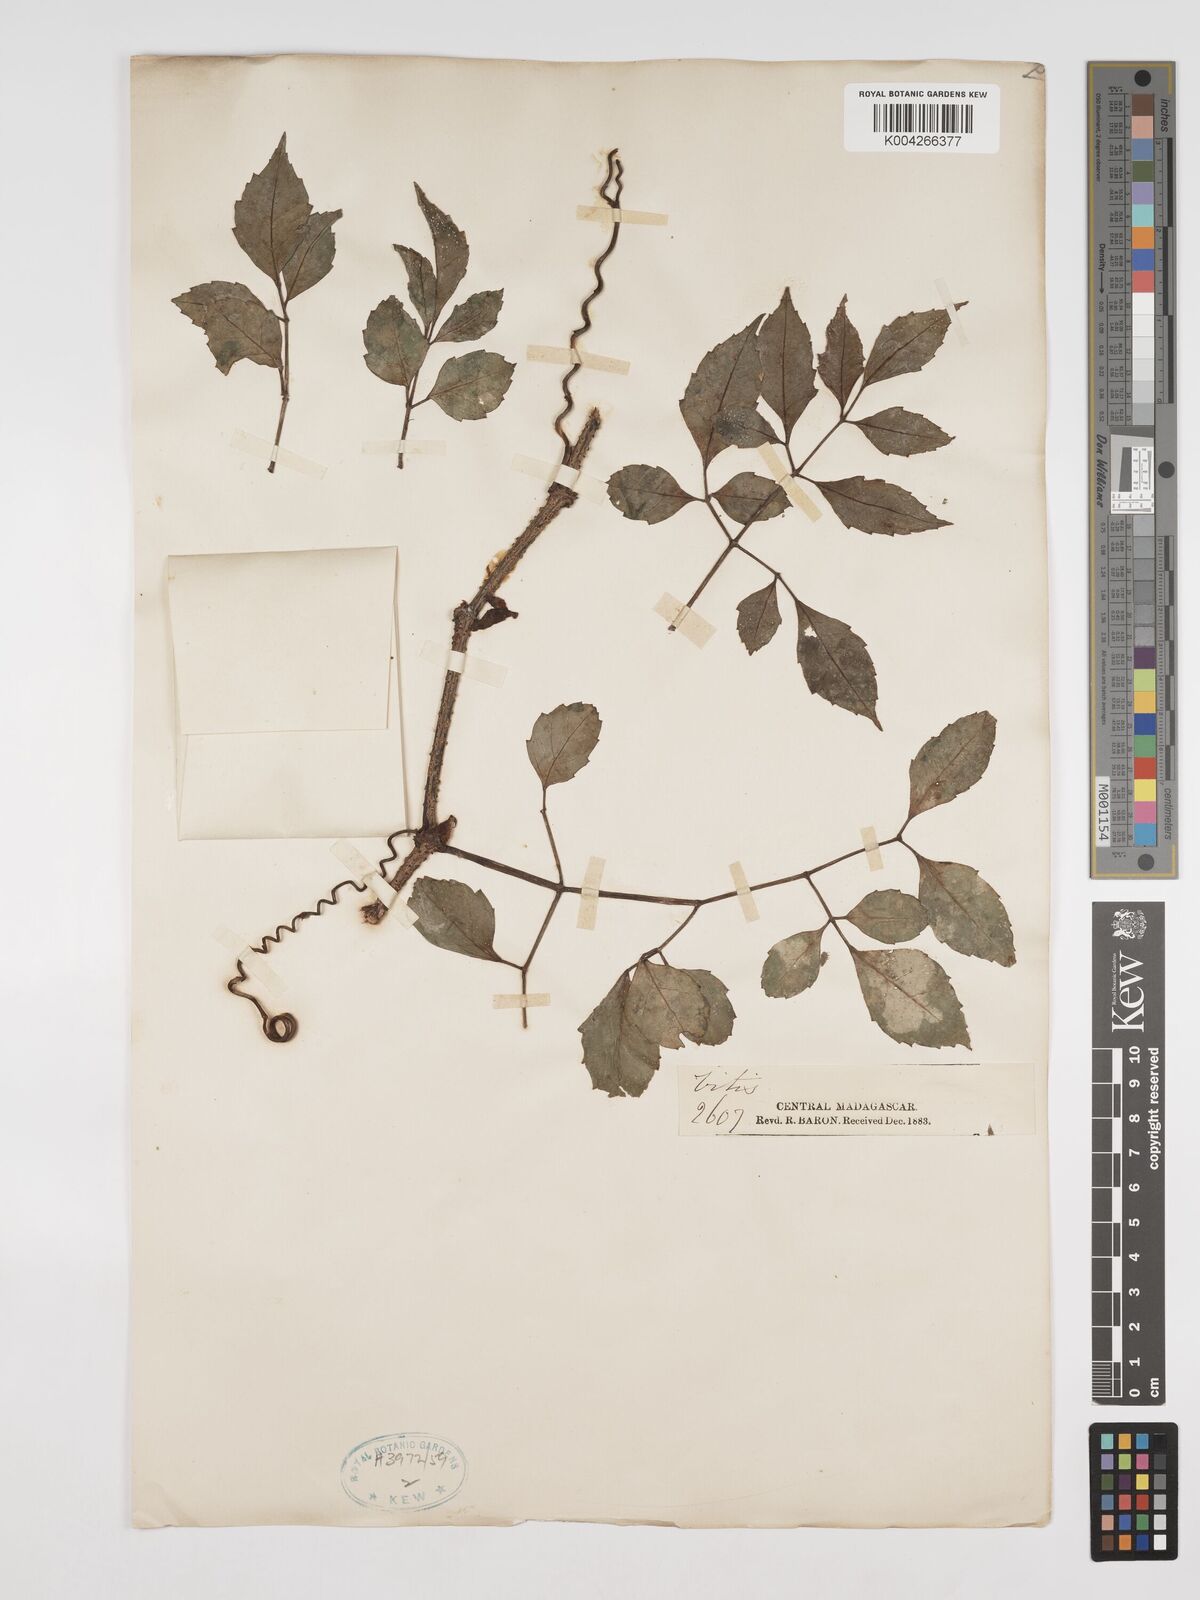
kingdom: Plantae
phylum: Tracheophyta
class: Magnoliopsida
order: Vitales
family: Vitaceae
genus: Cissus
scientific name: Cissus
